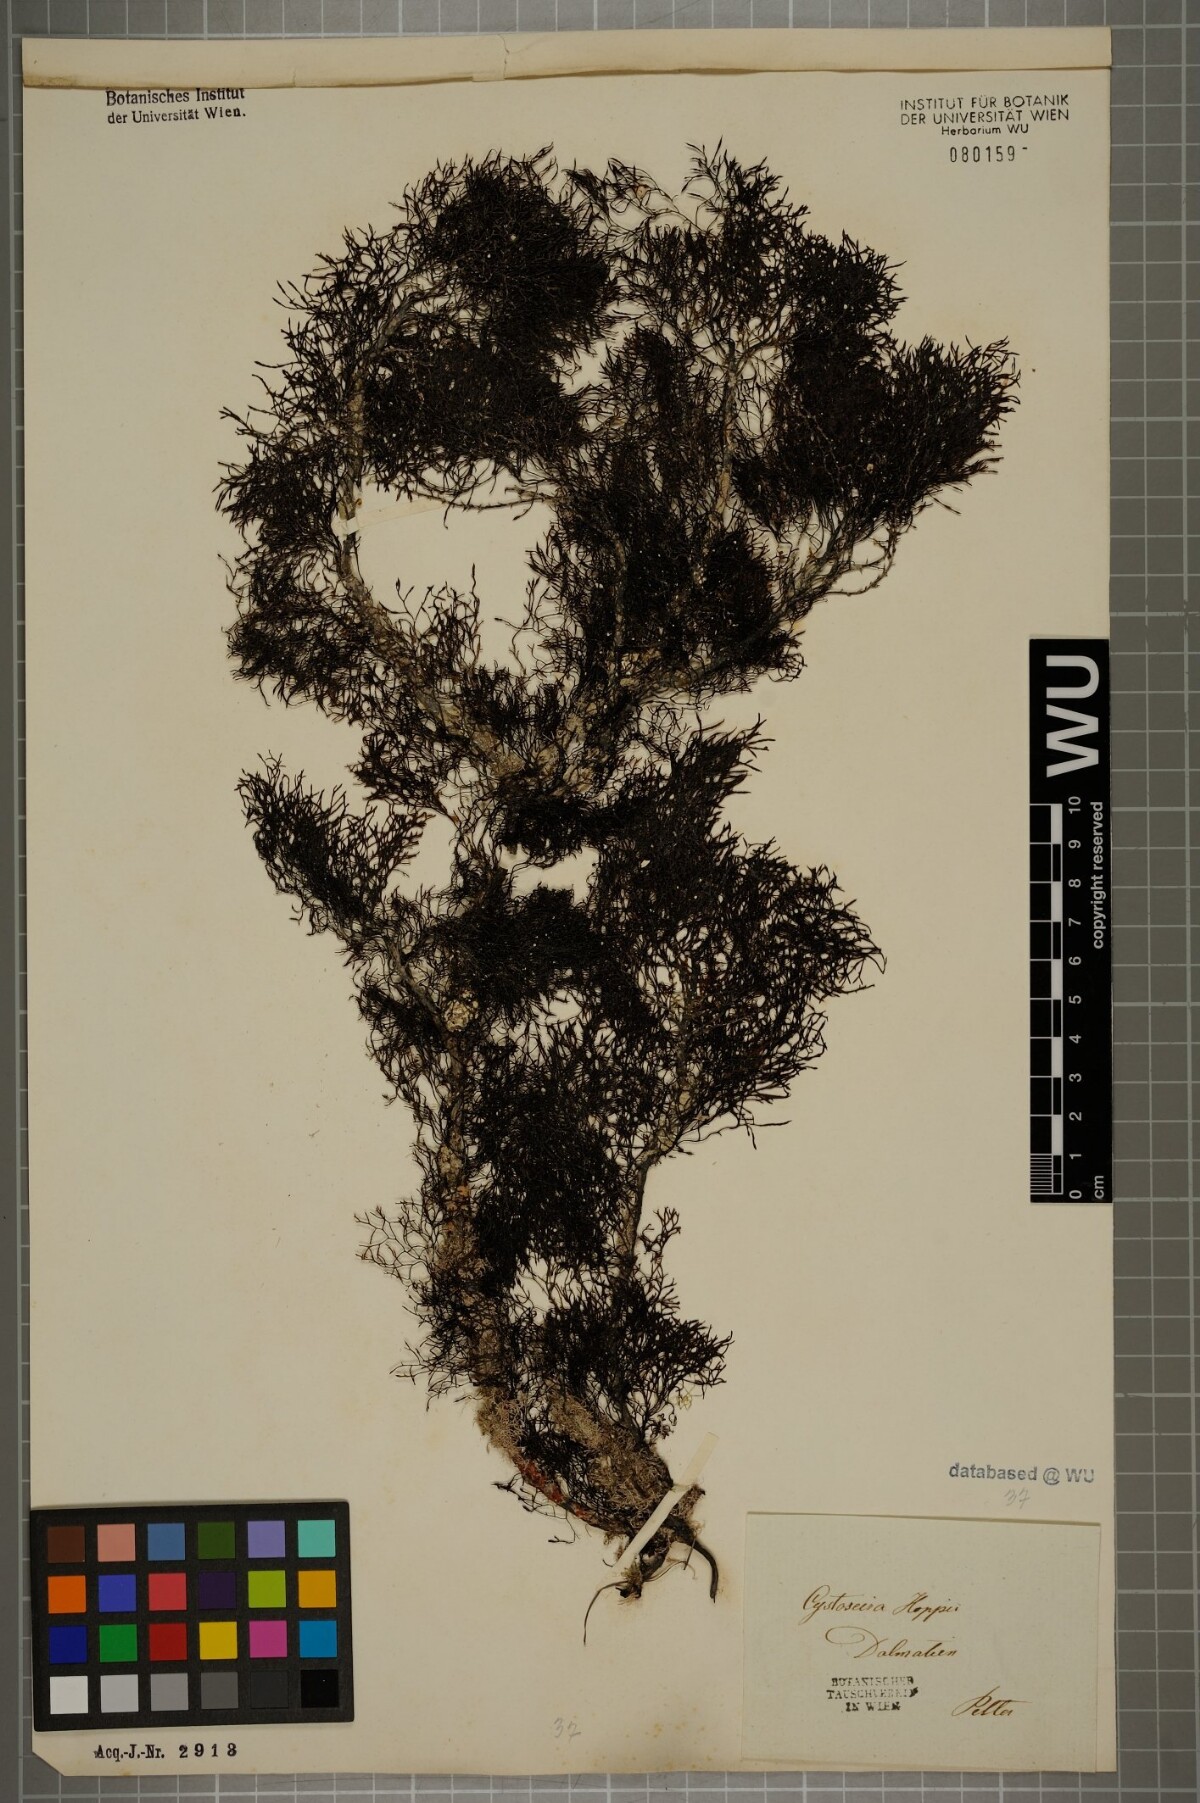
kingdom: Chromista
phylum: Ochrophyta
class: Phaeophyceae
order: Fucales
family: Sargassaceae
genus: Cystoseira
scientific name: Cystoseira Gongolaria barbata
